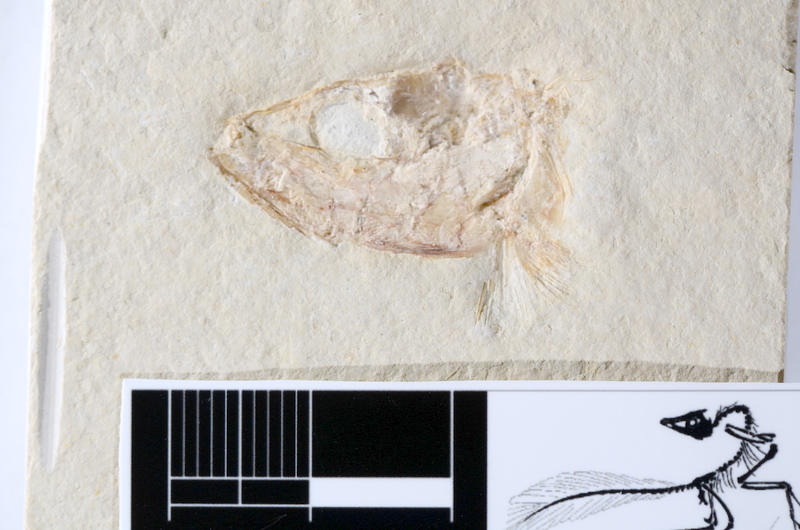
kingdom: Animalia
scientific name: Animalia
